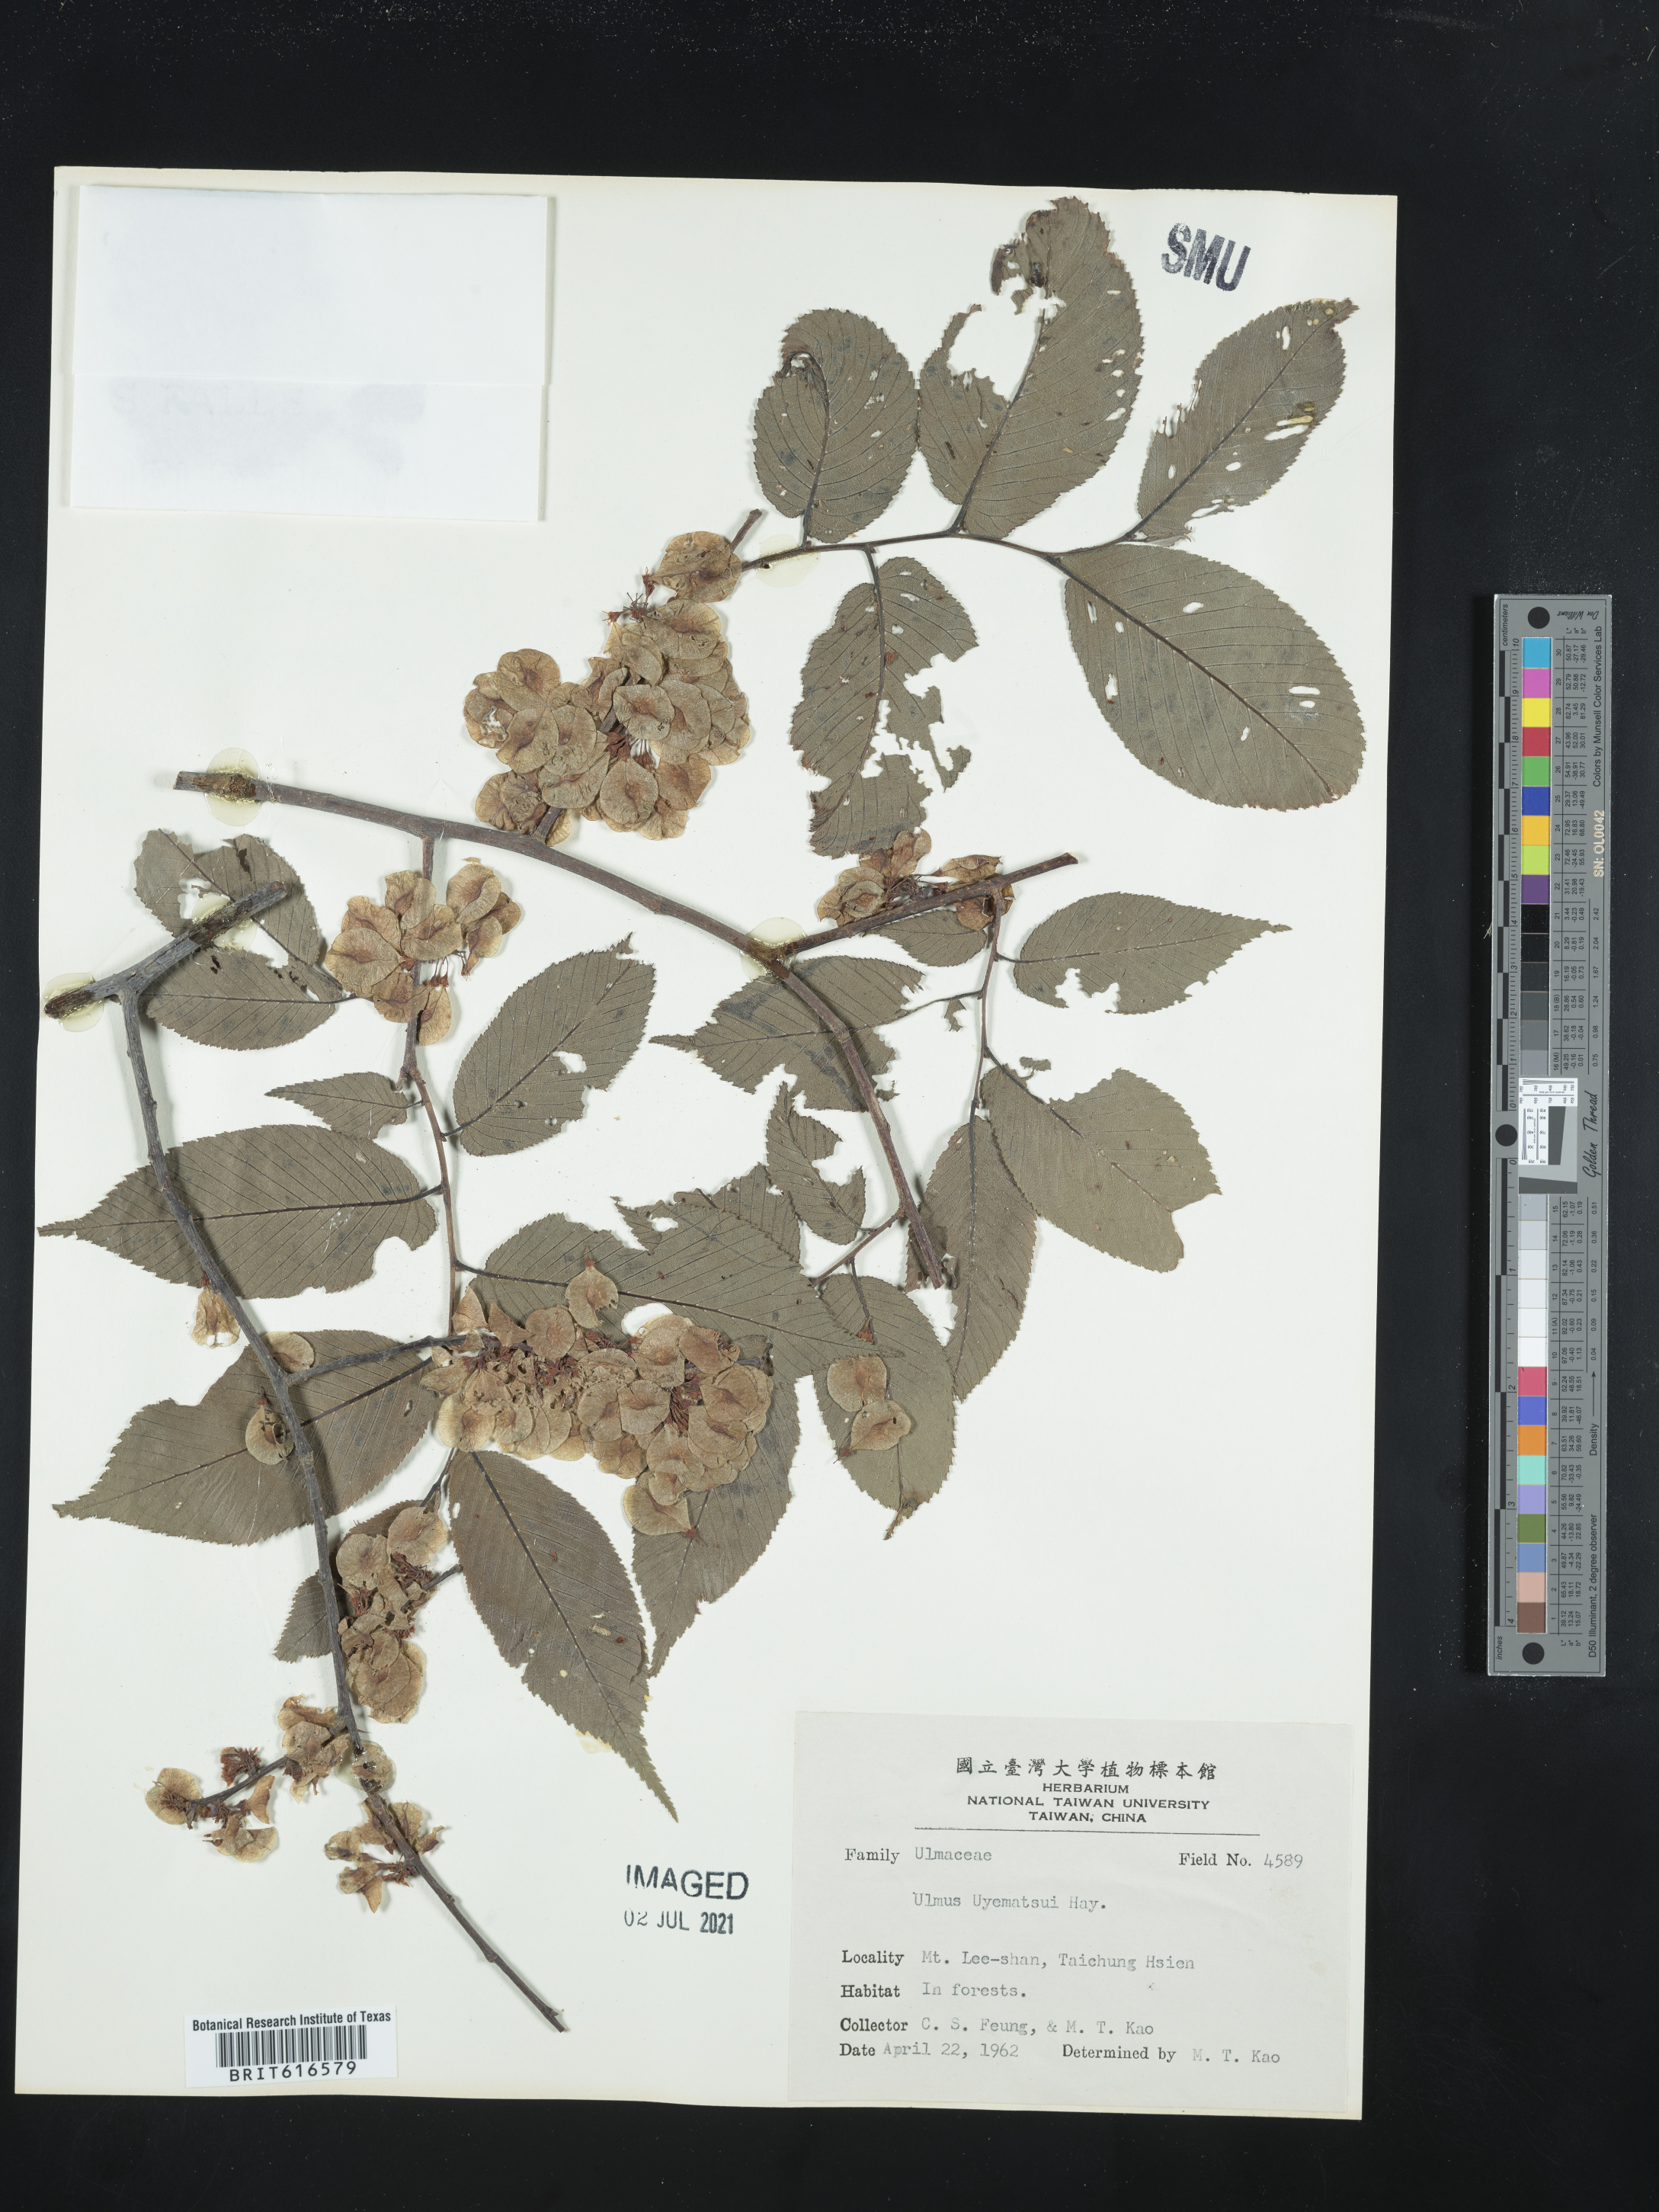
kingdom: Plantae
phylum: Tracheophyta
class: Magnoliopsida
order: Rosales
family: Ulmaceae
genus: Ulmus
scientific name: Ulmus uyematsui
